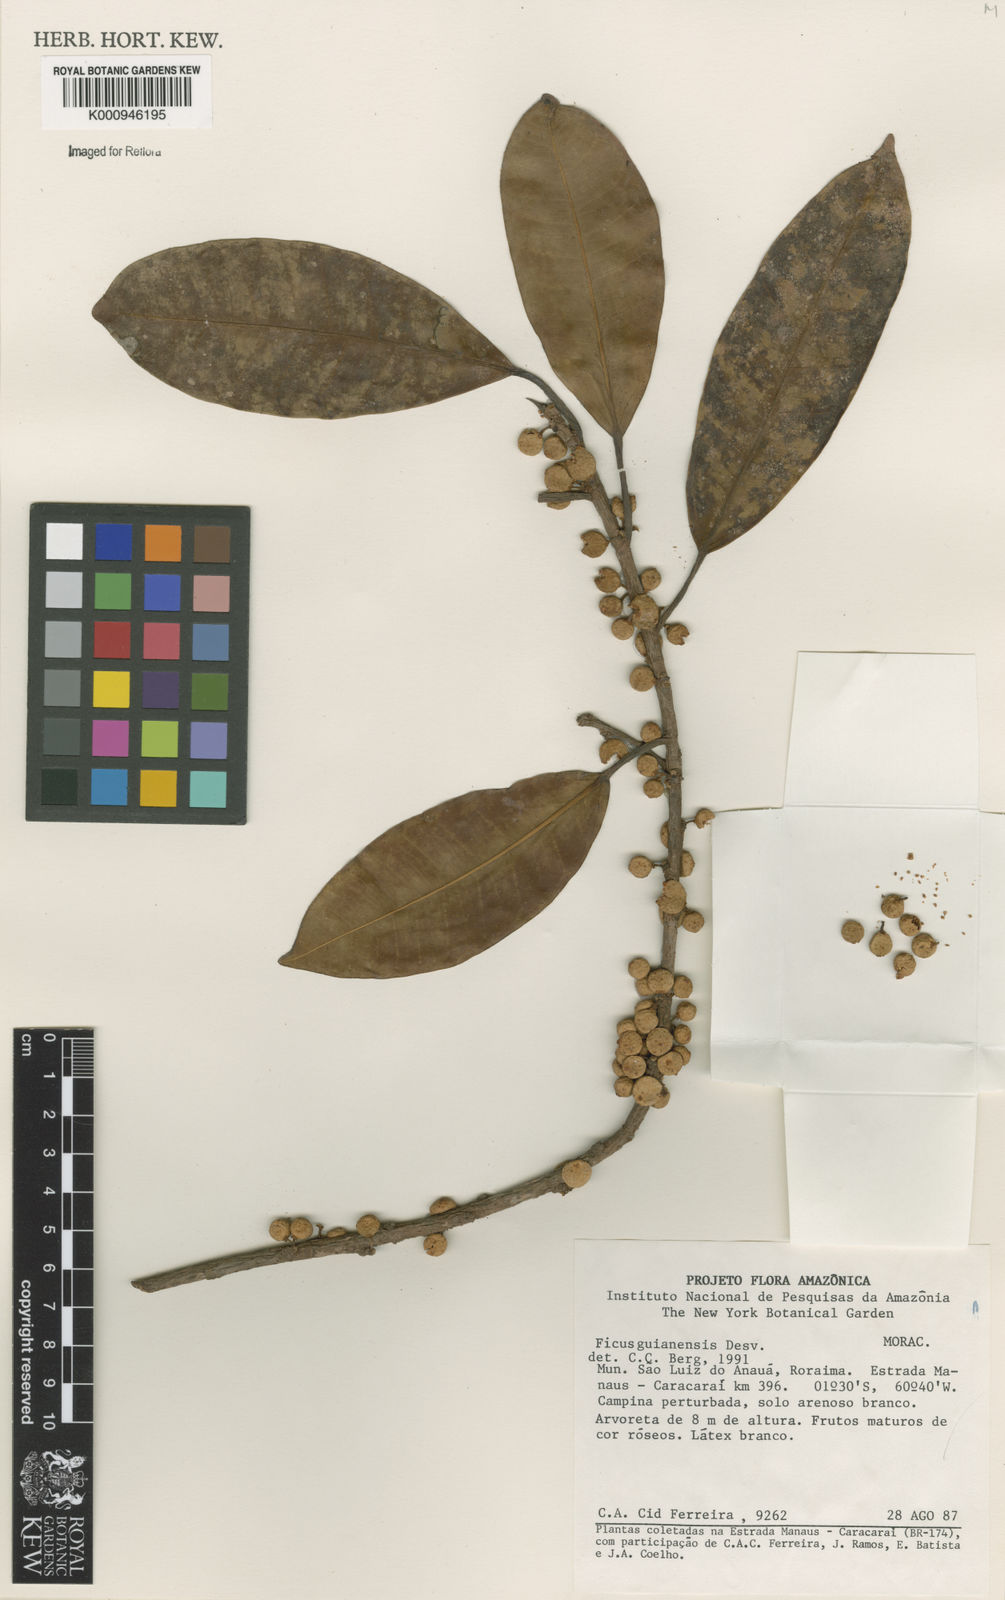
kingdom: Plantae
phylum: Tracheophyta
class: Magnoliopsida
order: Rosales
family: Moraceae
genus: Ficus
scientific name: Ficus americana
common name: Jamaican cherry fig
